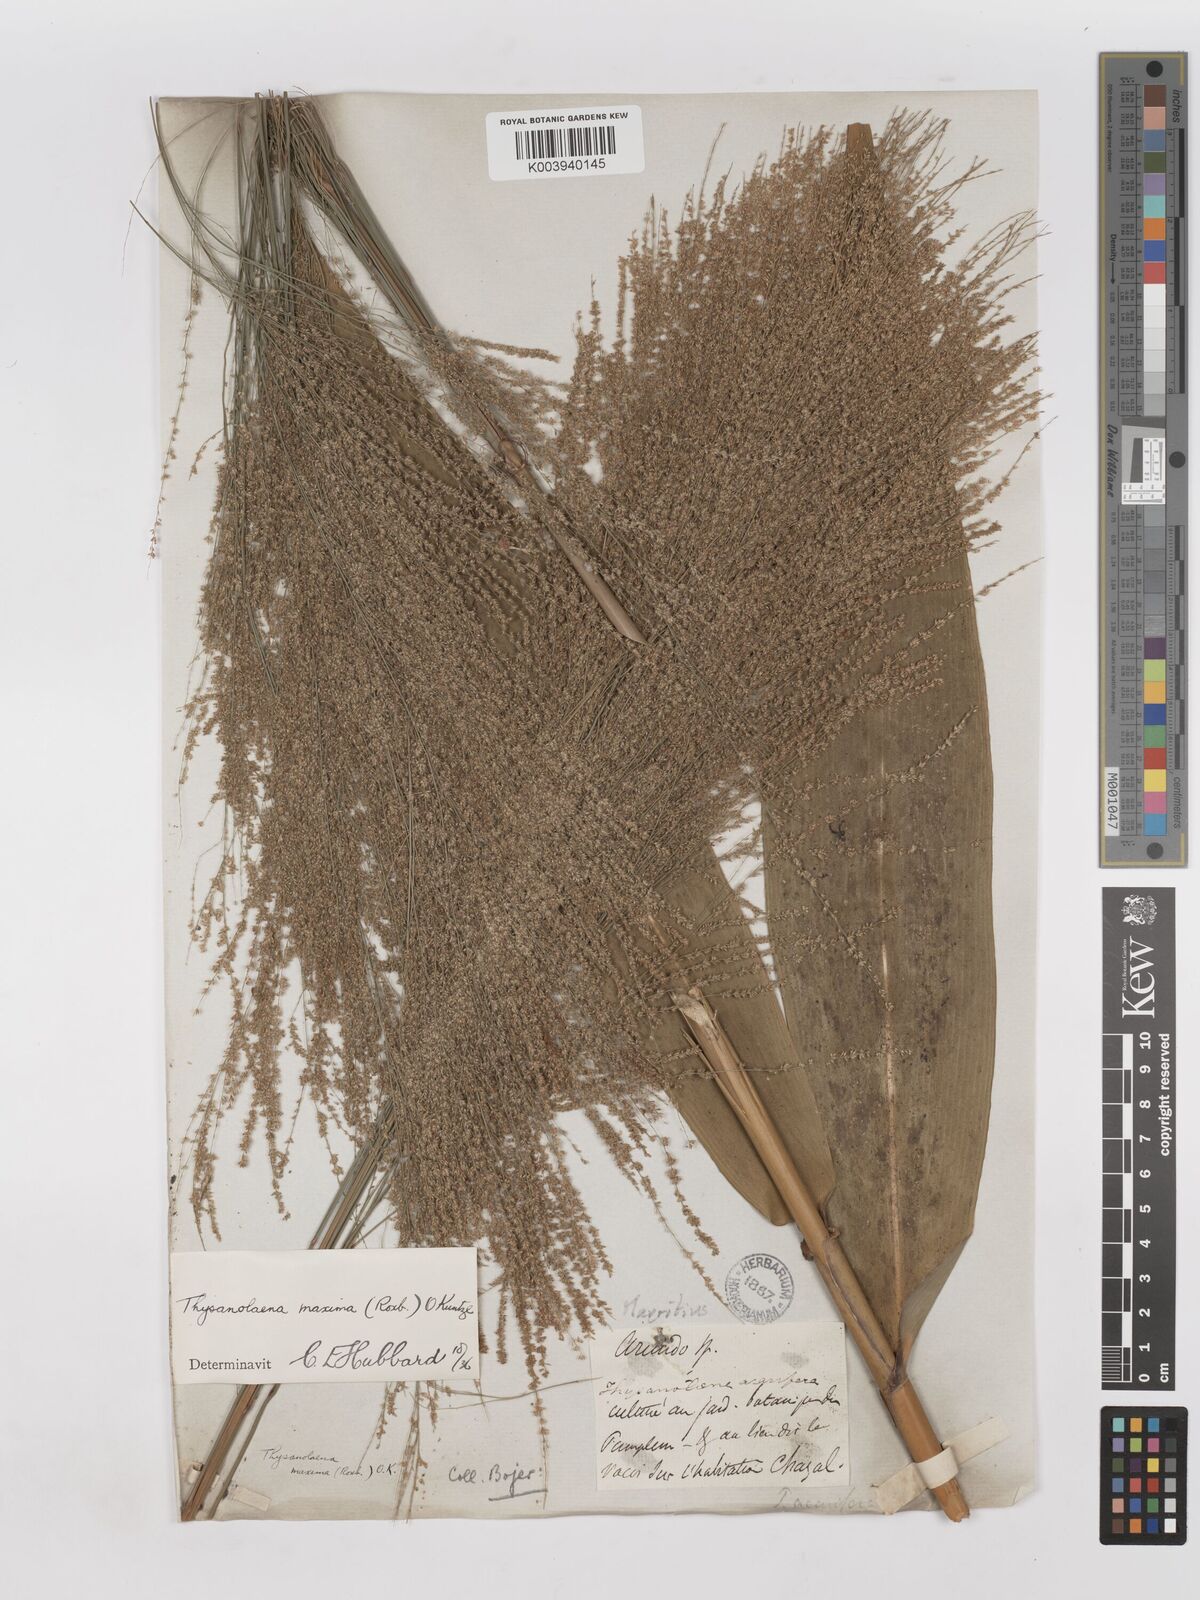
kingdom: Plantae
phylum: Tracheophyta
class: Liliopsida
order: Poales
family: Poaceae
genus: Thysanolaena
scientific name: Thysanolaena latifolia
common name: Tiger grass
